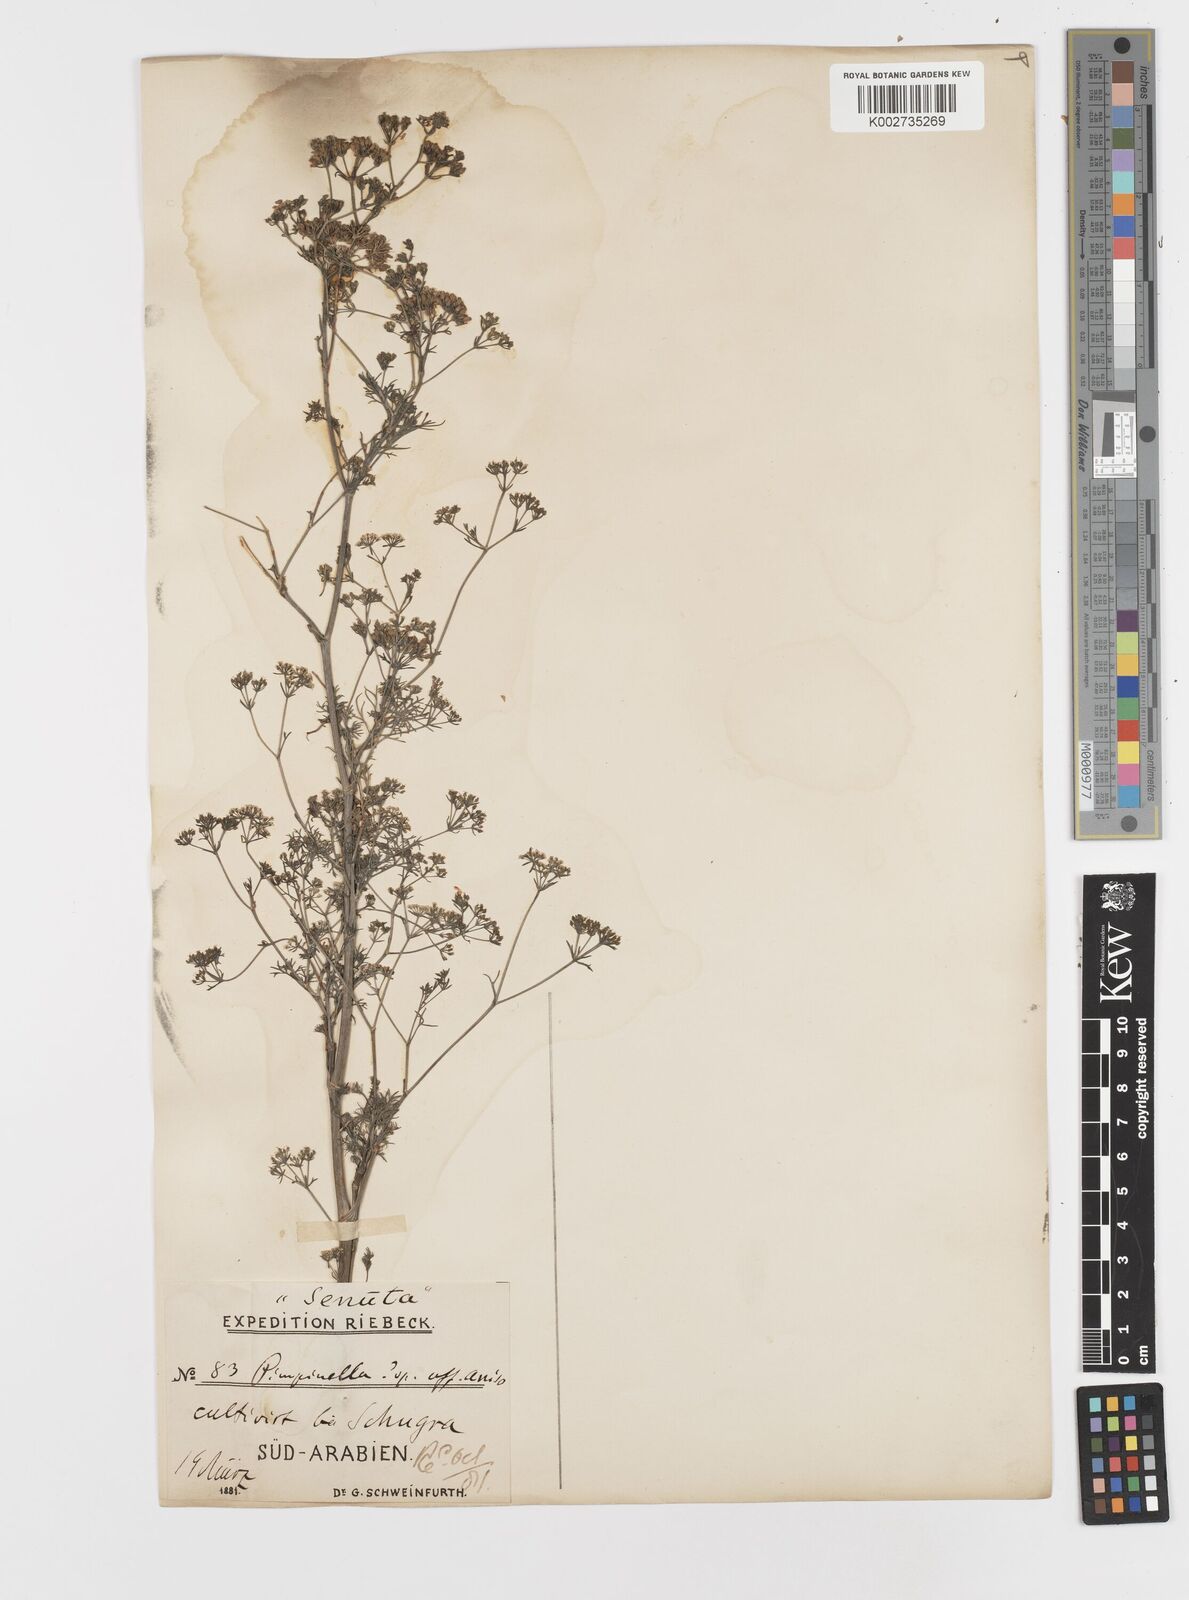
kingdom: Plantae
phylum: Tracheophyta
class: Magnoliopsida
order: Apiales
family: Apiaceae
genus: Trachyspermum
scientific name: Trachyspermum ammi
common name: Ajowan
